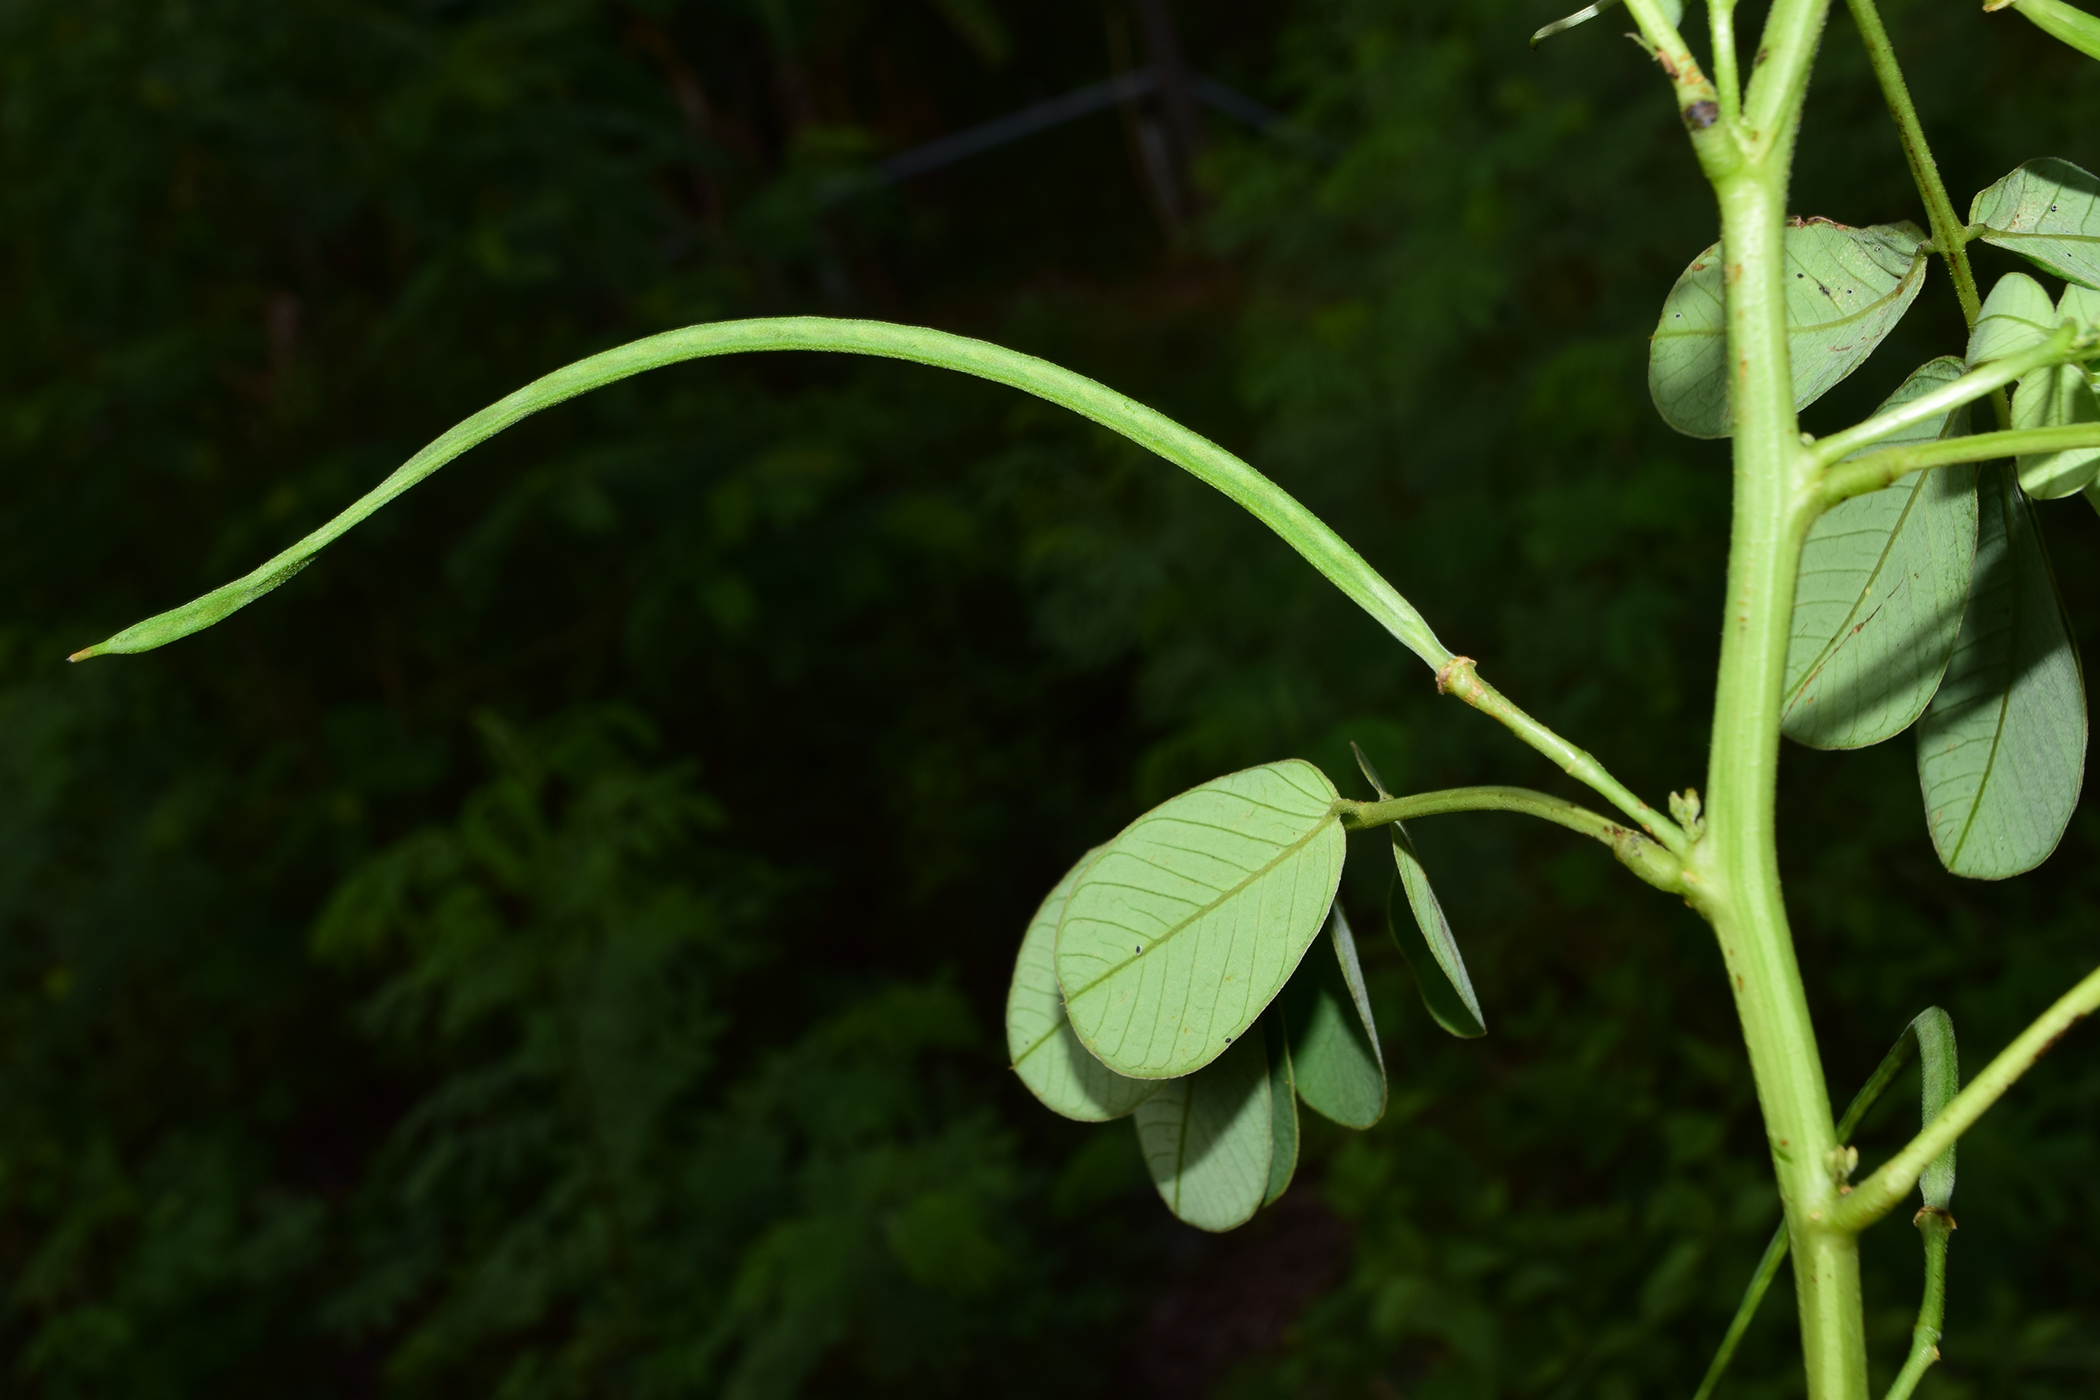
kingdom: Plantae
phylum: Tracheophyta
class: Magnoliopsida
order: Fabales
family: Fabaceae
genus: Senna
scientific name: Senna tora
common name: Sickle senna
